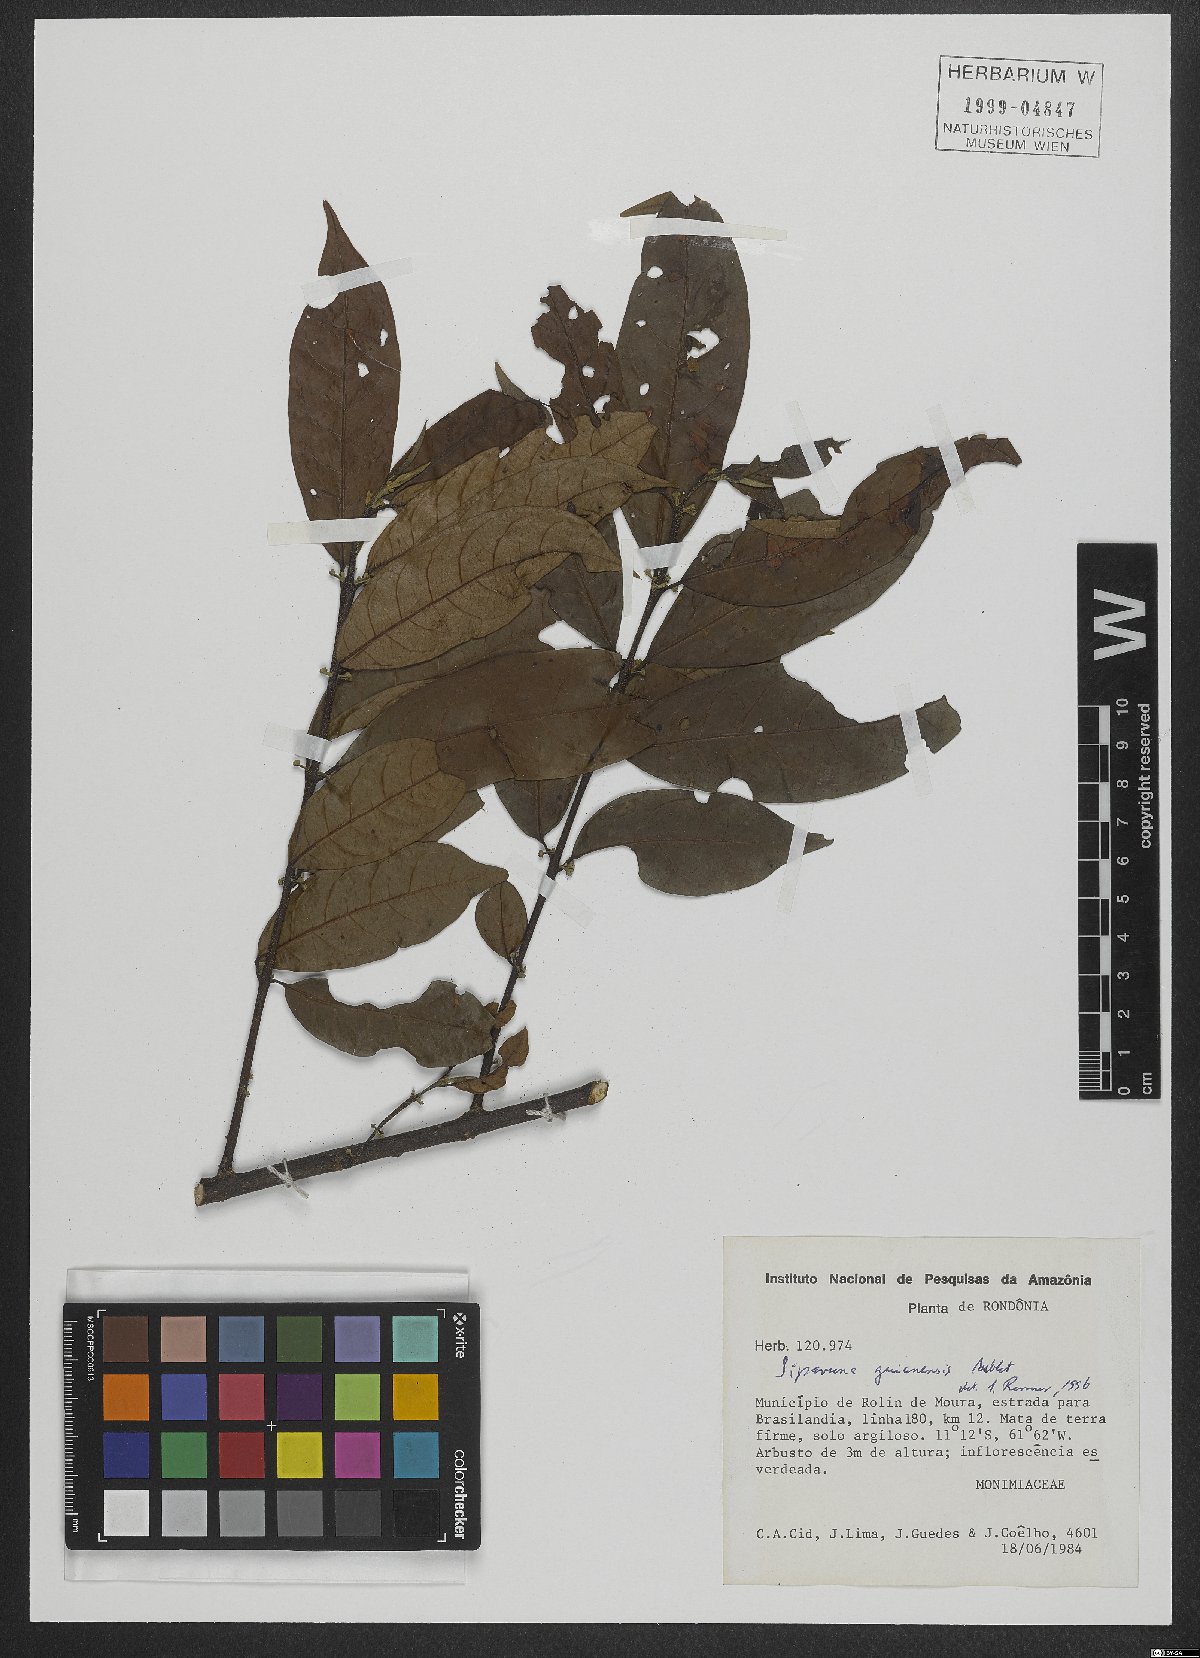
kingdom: Plantae
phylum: Tracheophyta
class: Magnoliopsida
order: Laurales
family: Siparunaceae
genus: Siparuna
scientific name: Siparuna guianensis
